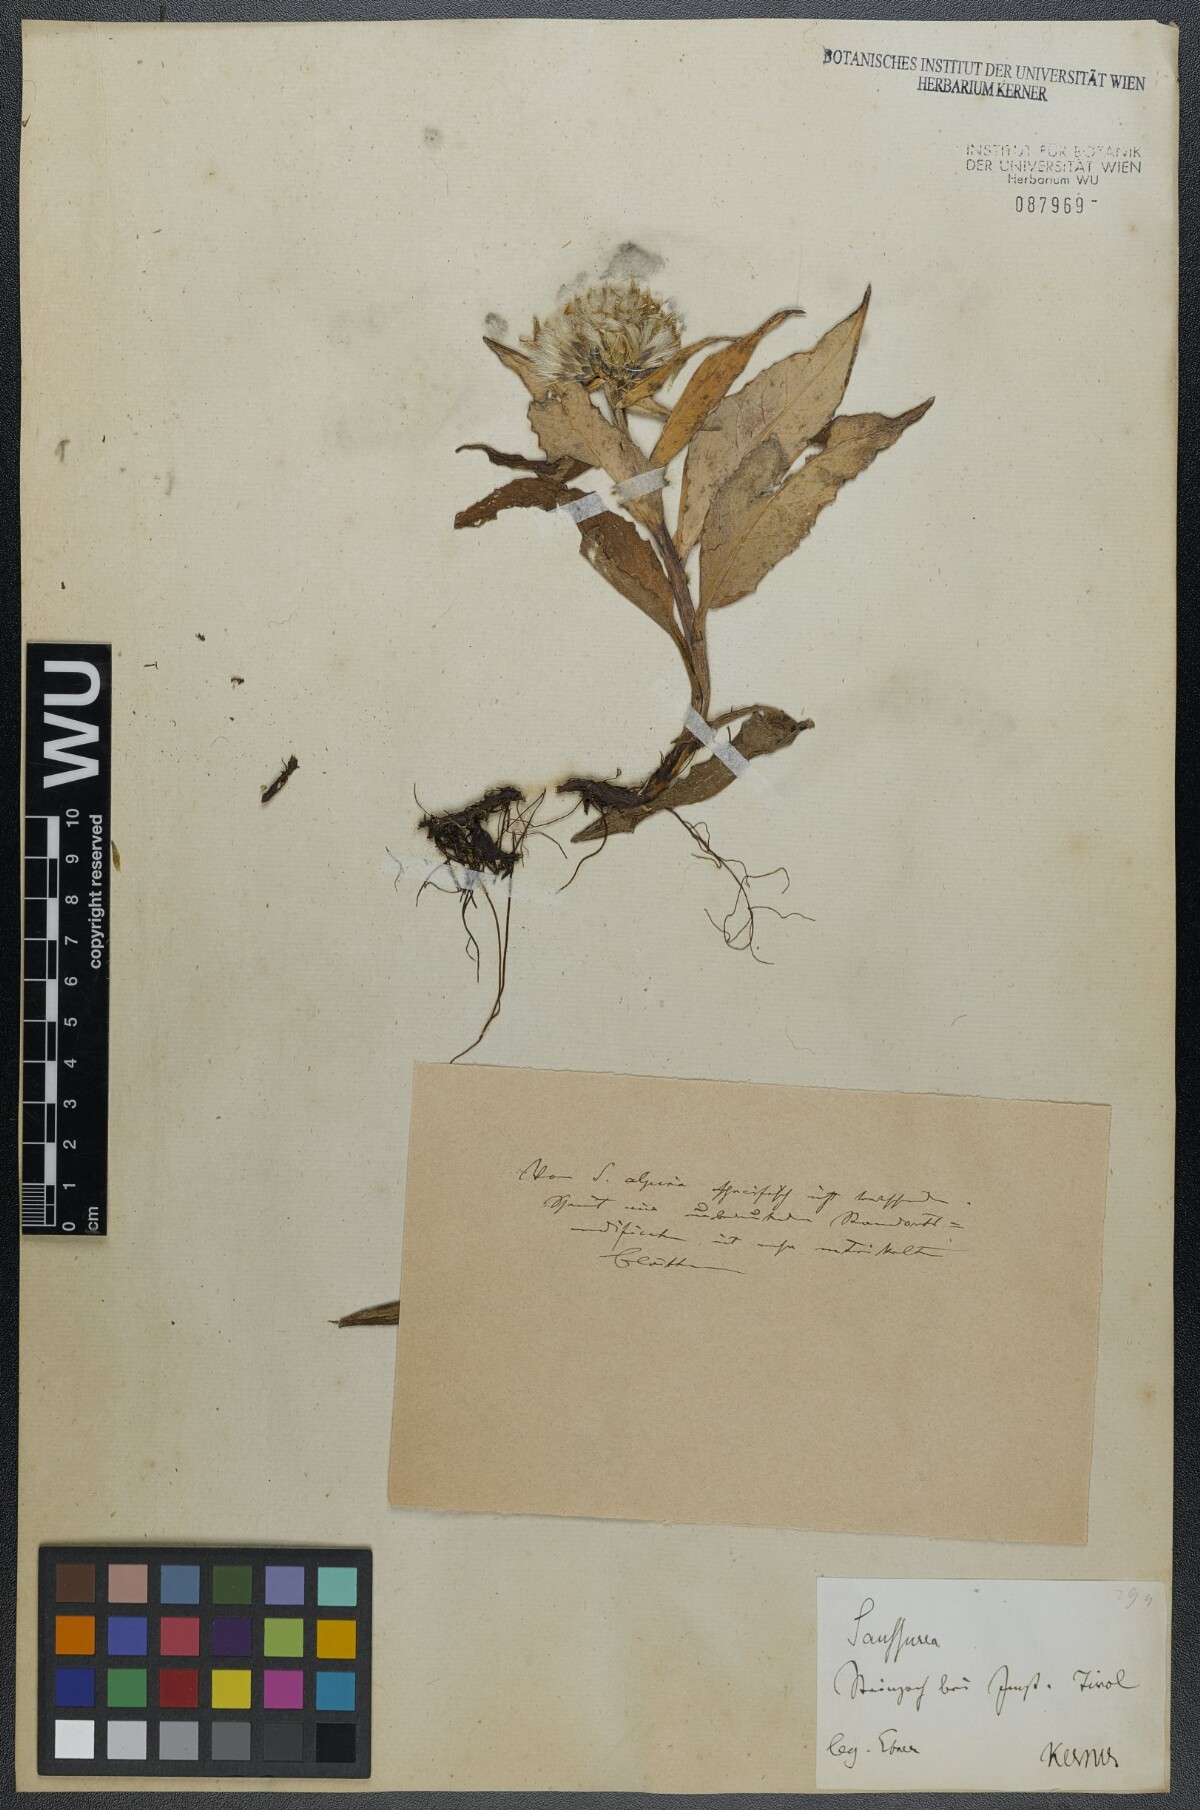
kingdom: Plantae
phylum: Tracheophyta
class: Magnoliopsida
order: Asterales
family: Asteraceae
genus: Saussurea
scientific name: Saussurea alpina
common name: Alpine saw-wort
